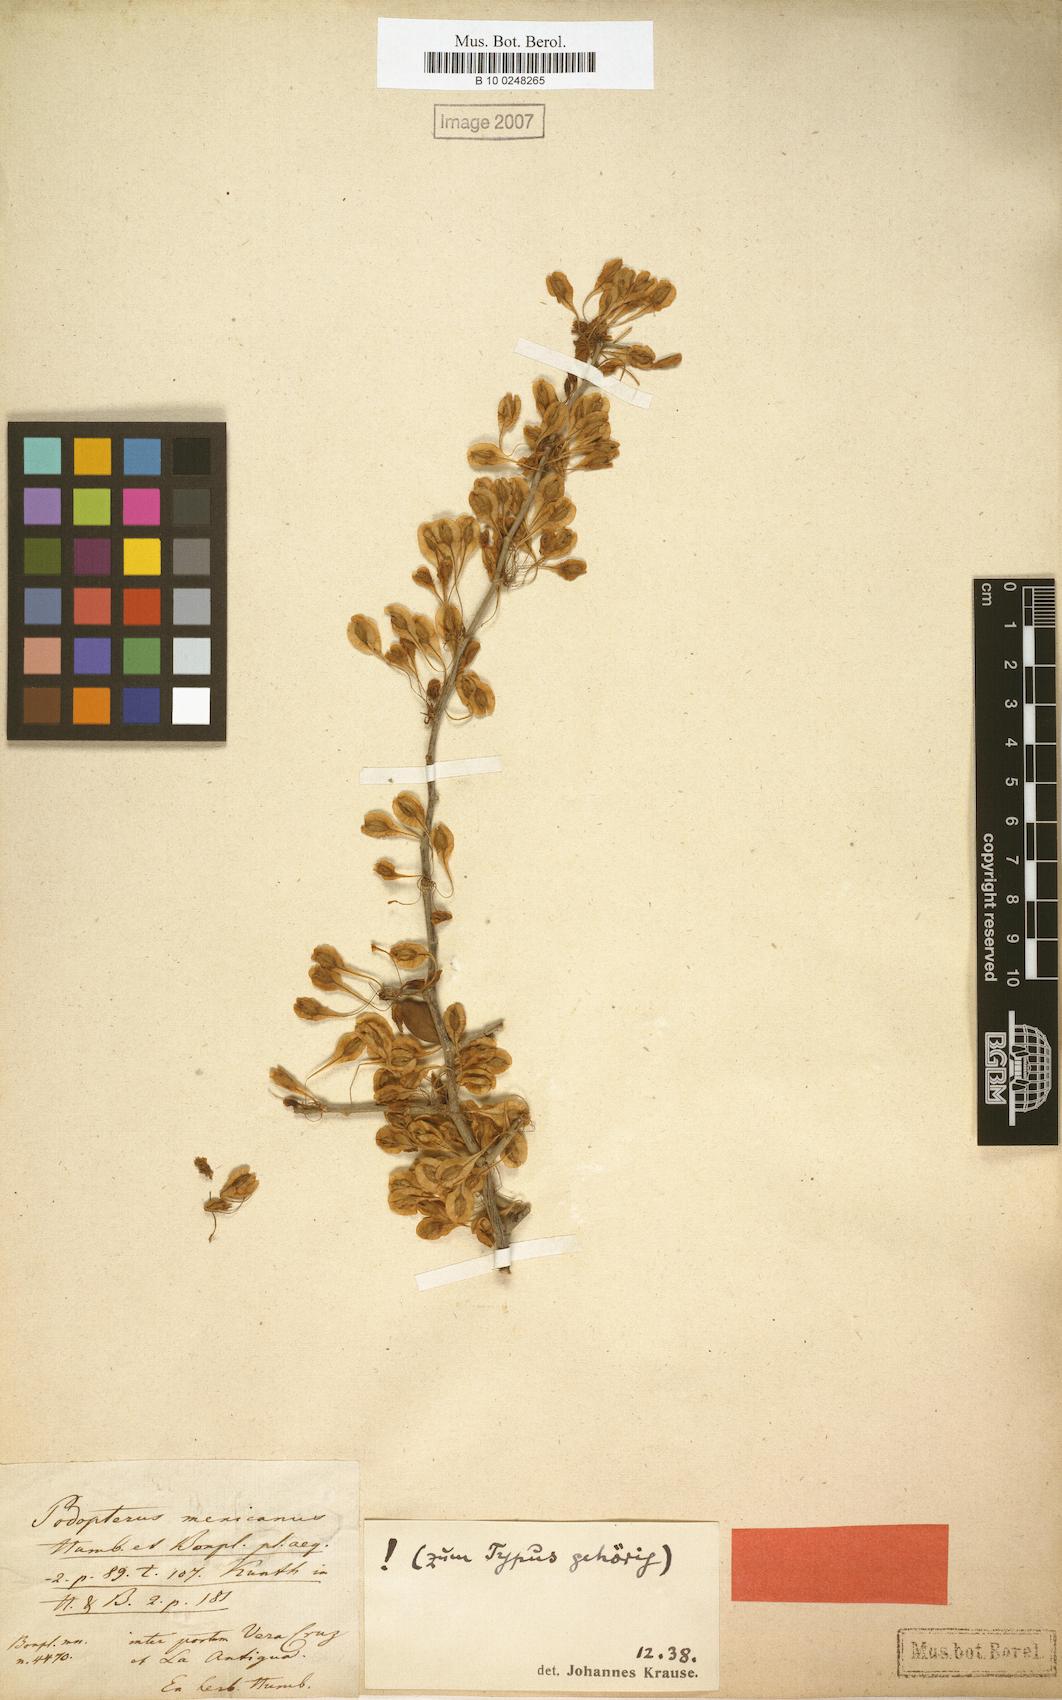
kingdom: Plantae
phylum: Tracheophyta
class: Magnoliopsida
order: Caryophyllales
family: Polygonaceae
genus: Podopterus
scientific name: Podopterus mexicanus
